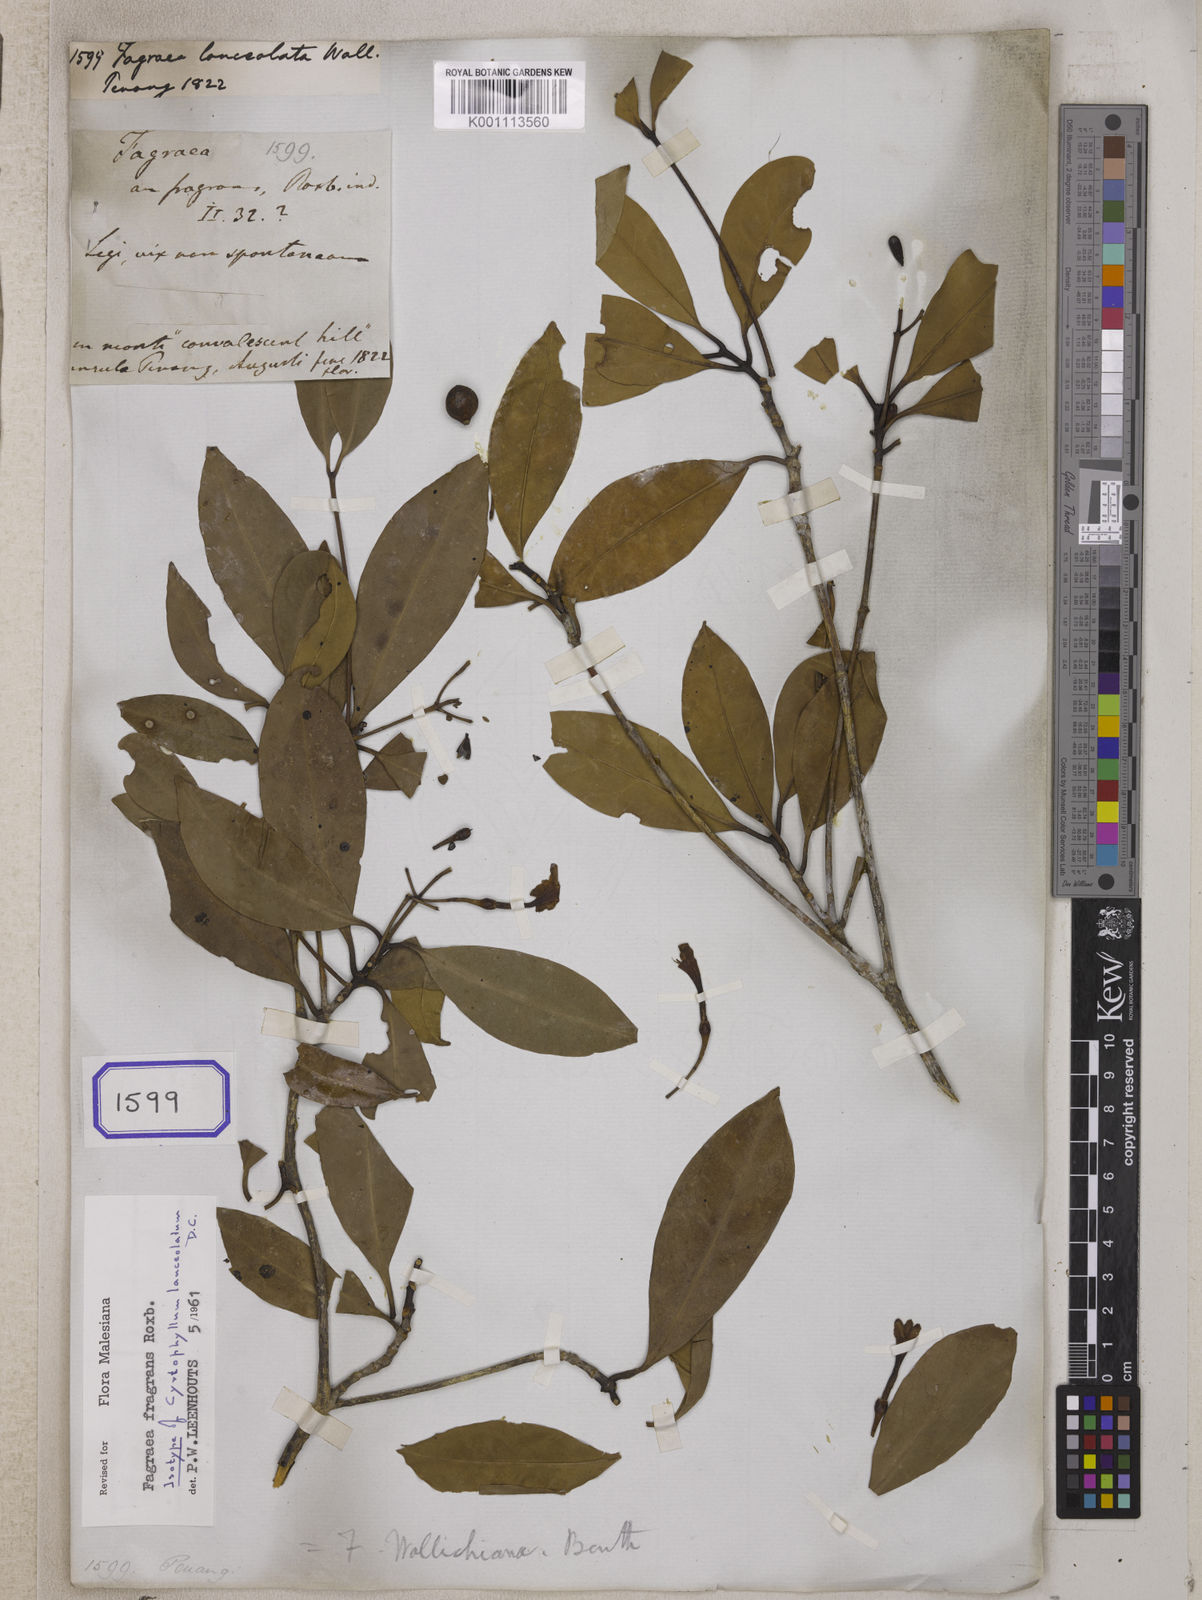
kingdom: Plantae
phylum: Tracheophyta
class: Magnoliopsida
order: Gentianales
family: Gentianaceae
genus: Fagraea
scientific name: Fagraea
